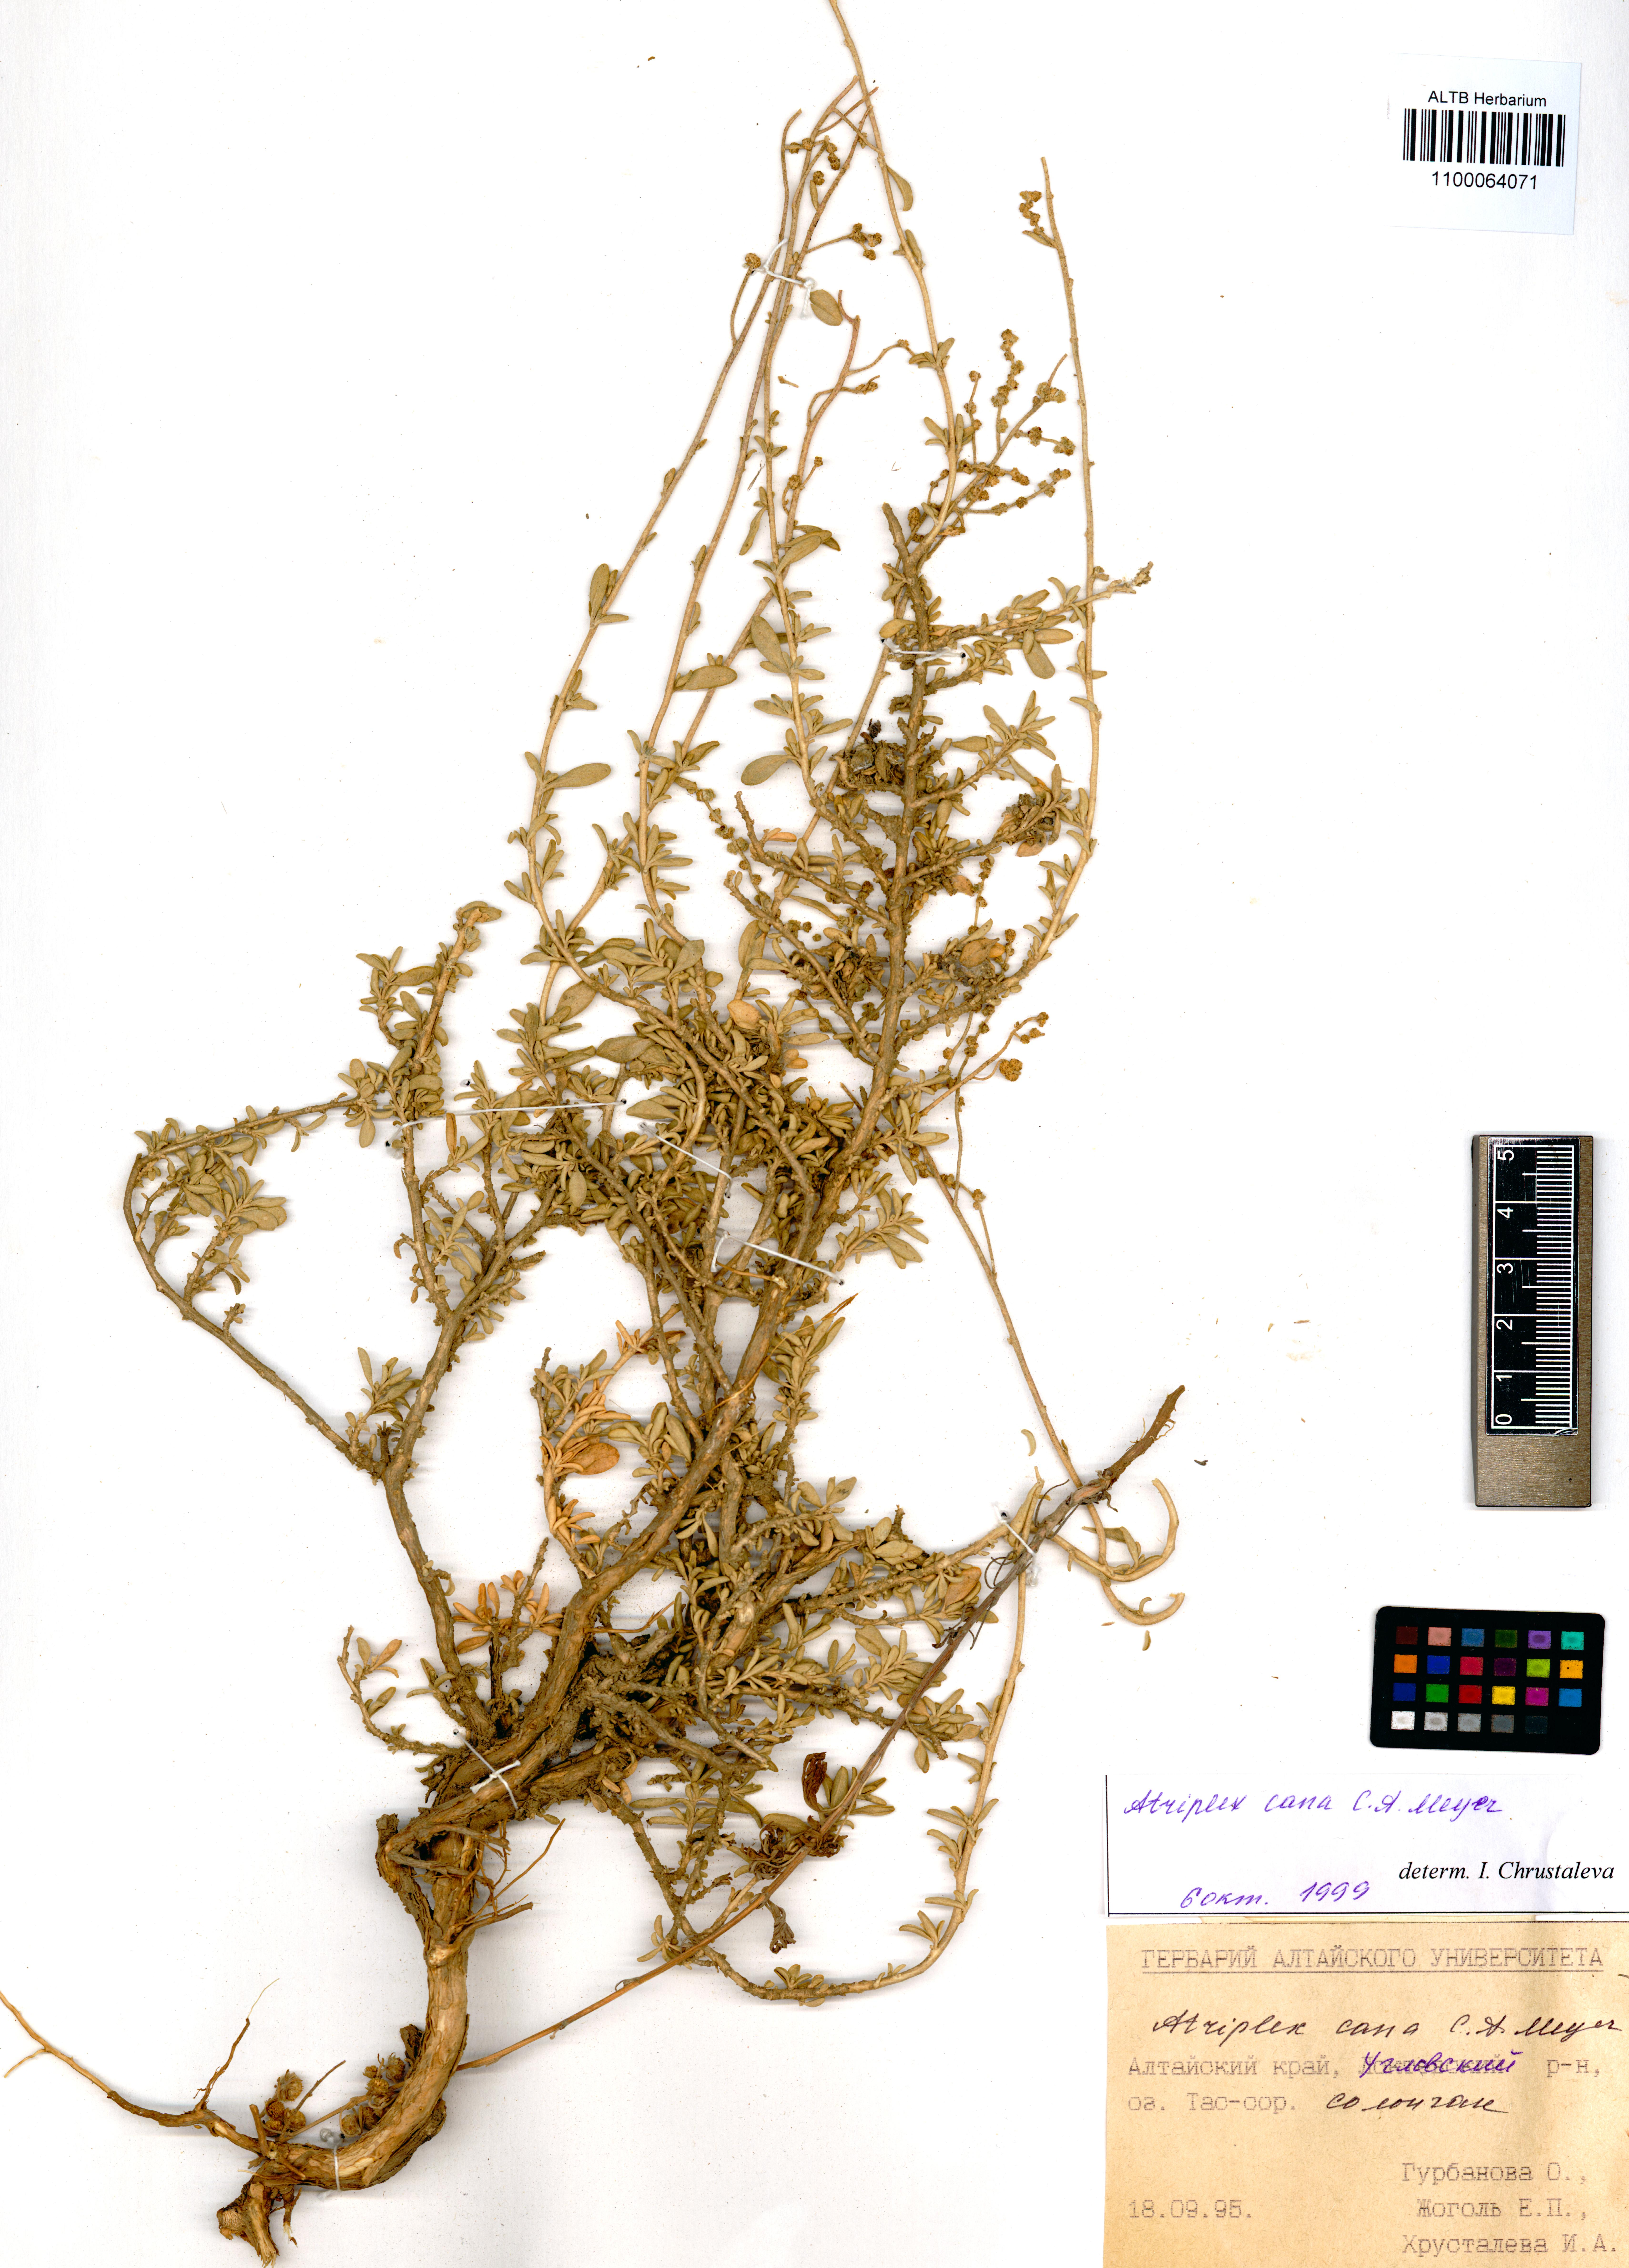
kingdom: Plantae
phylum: Tracheophyta
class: Magnoliopsida
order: Caryophyllales
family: Amaranthaceae
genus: Atriplex
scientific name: Atriplex cana
